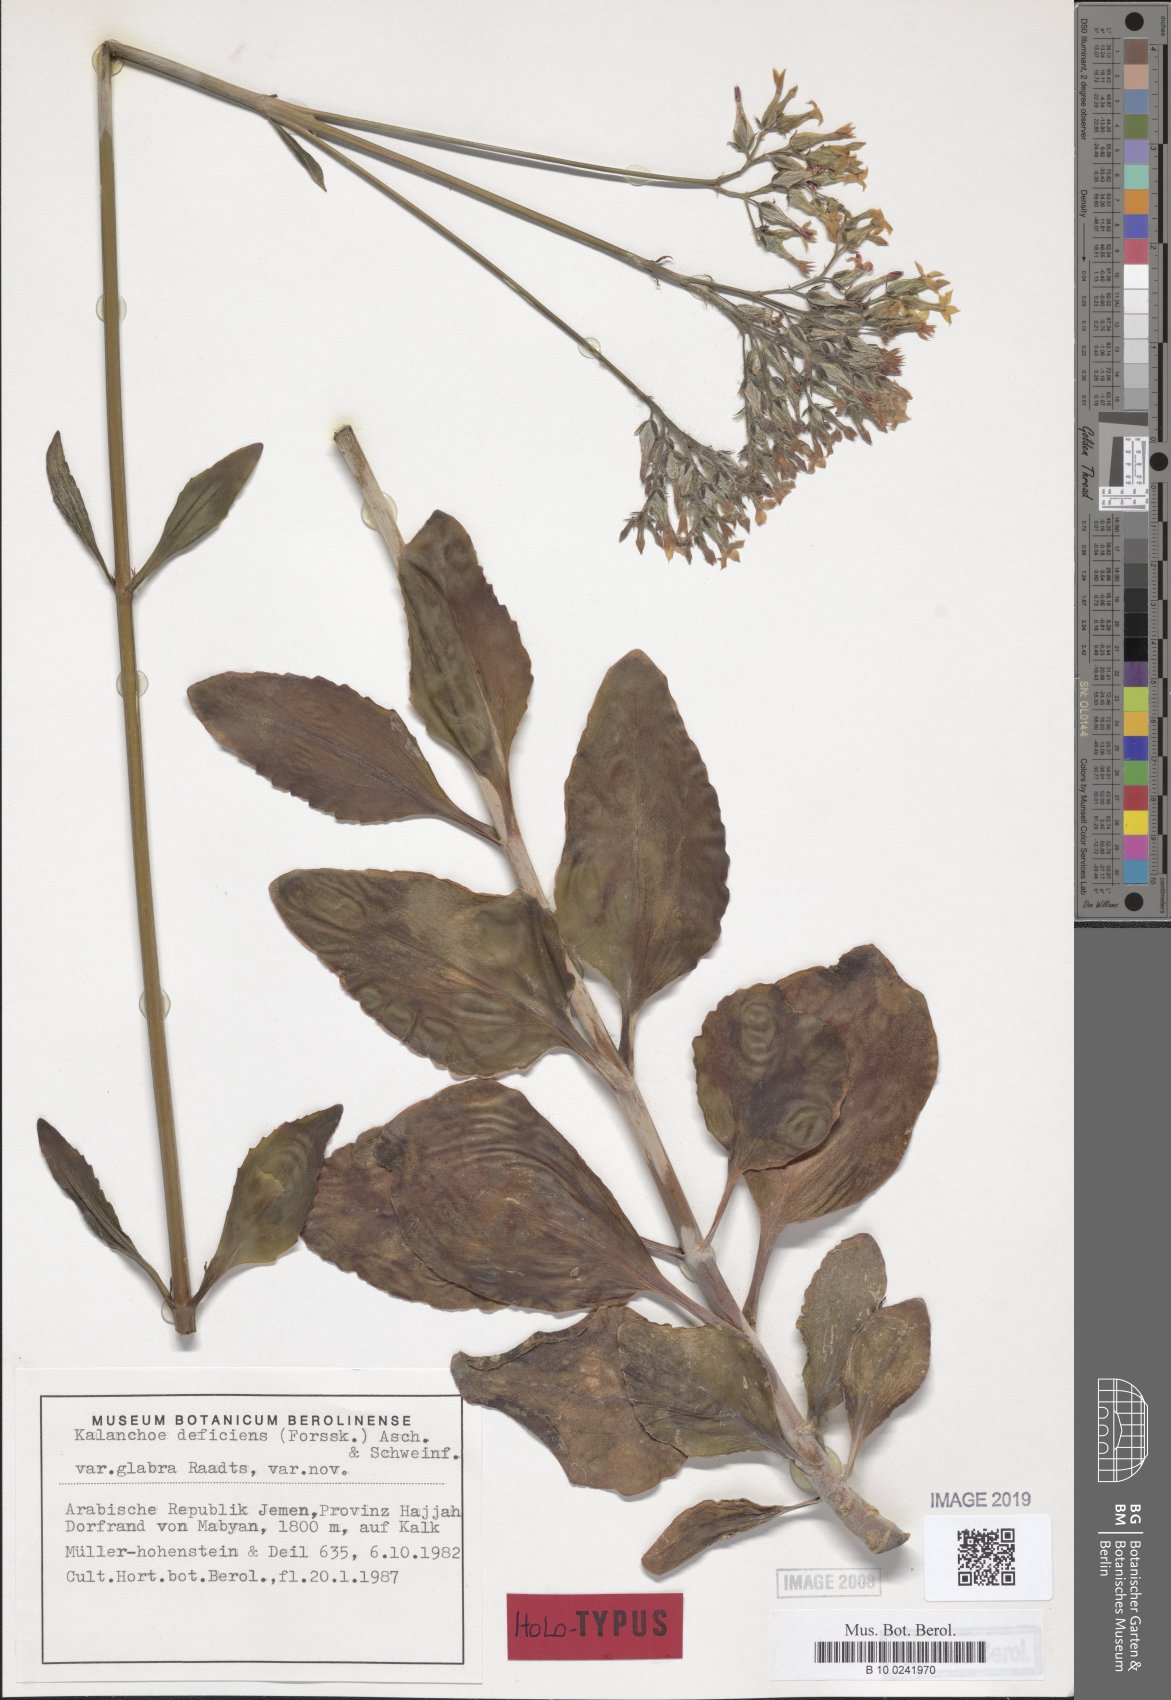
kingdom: Plantae
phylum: Tracheophyta
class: Magnoliopsida
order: Saxifragales
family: Crassulaceae
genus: Kalanchoe
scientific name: Kalanchoe deficiens
